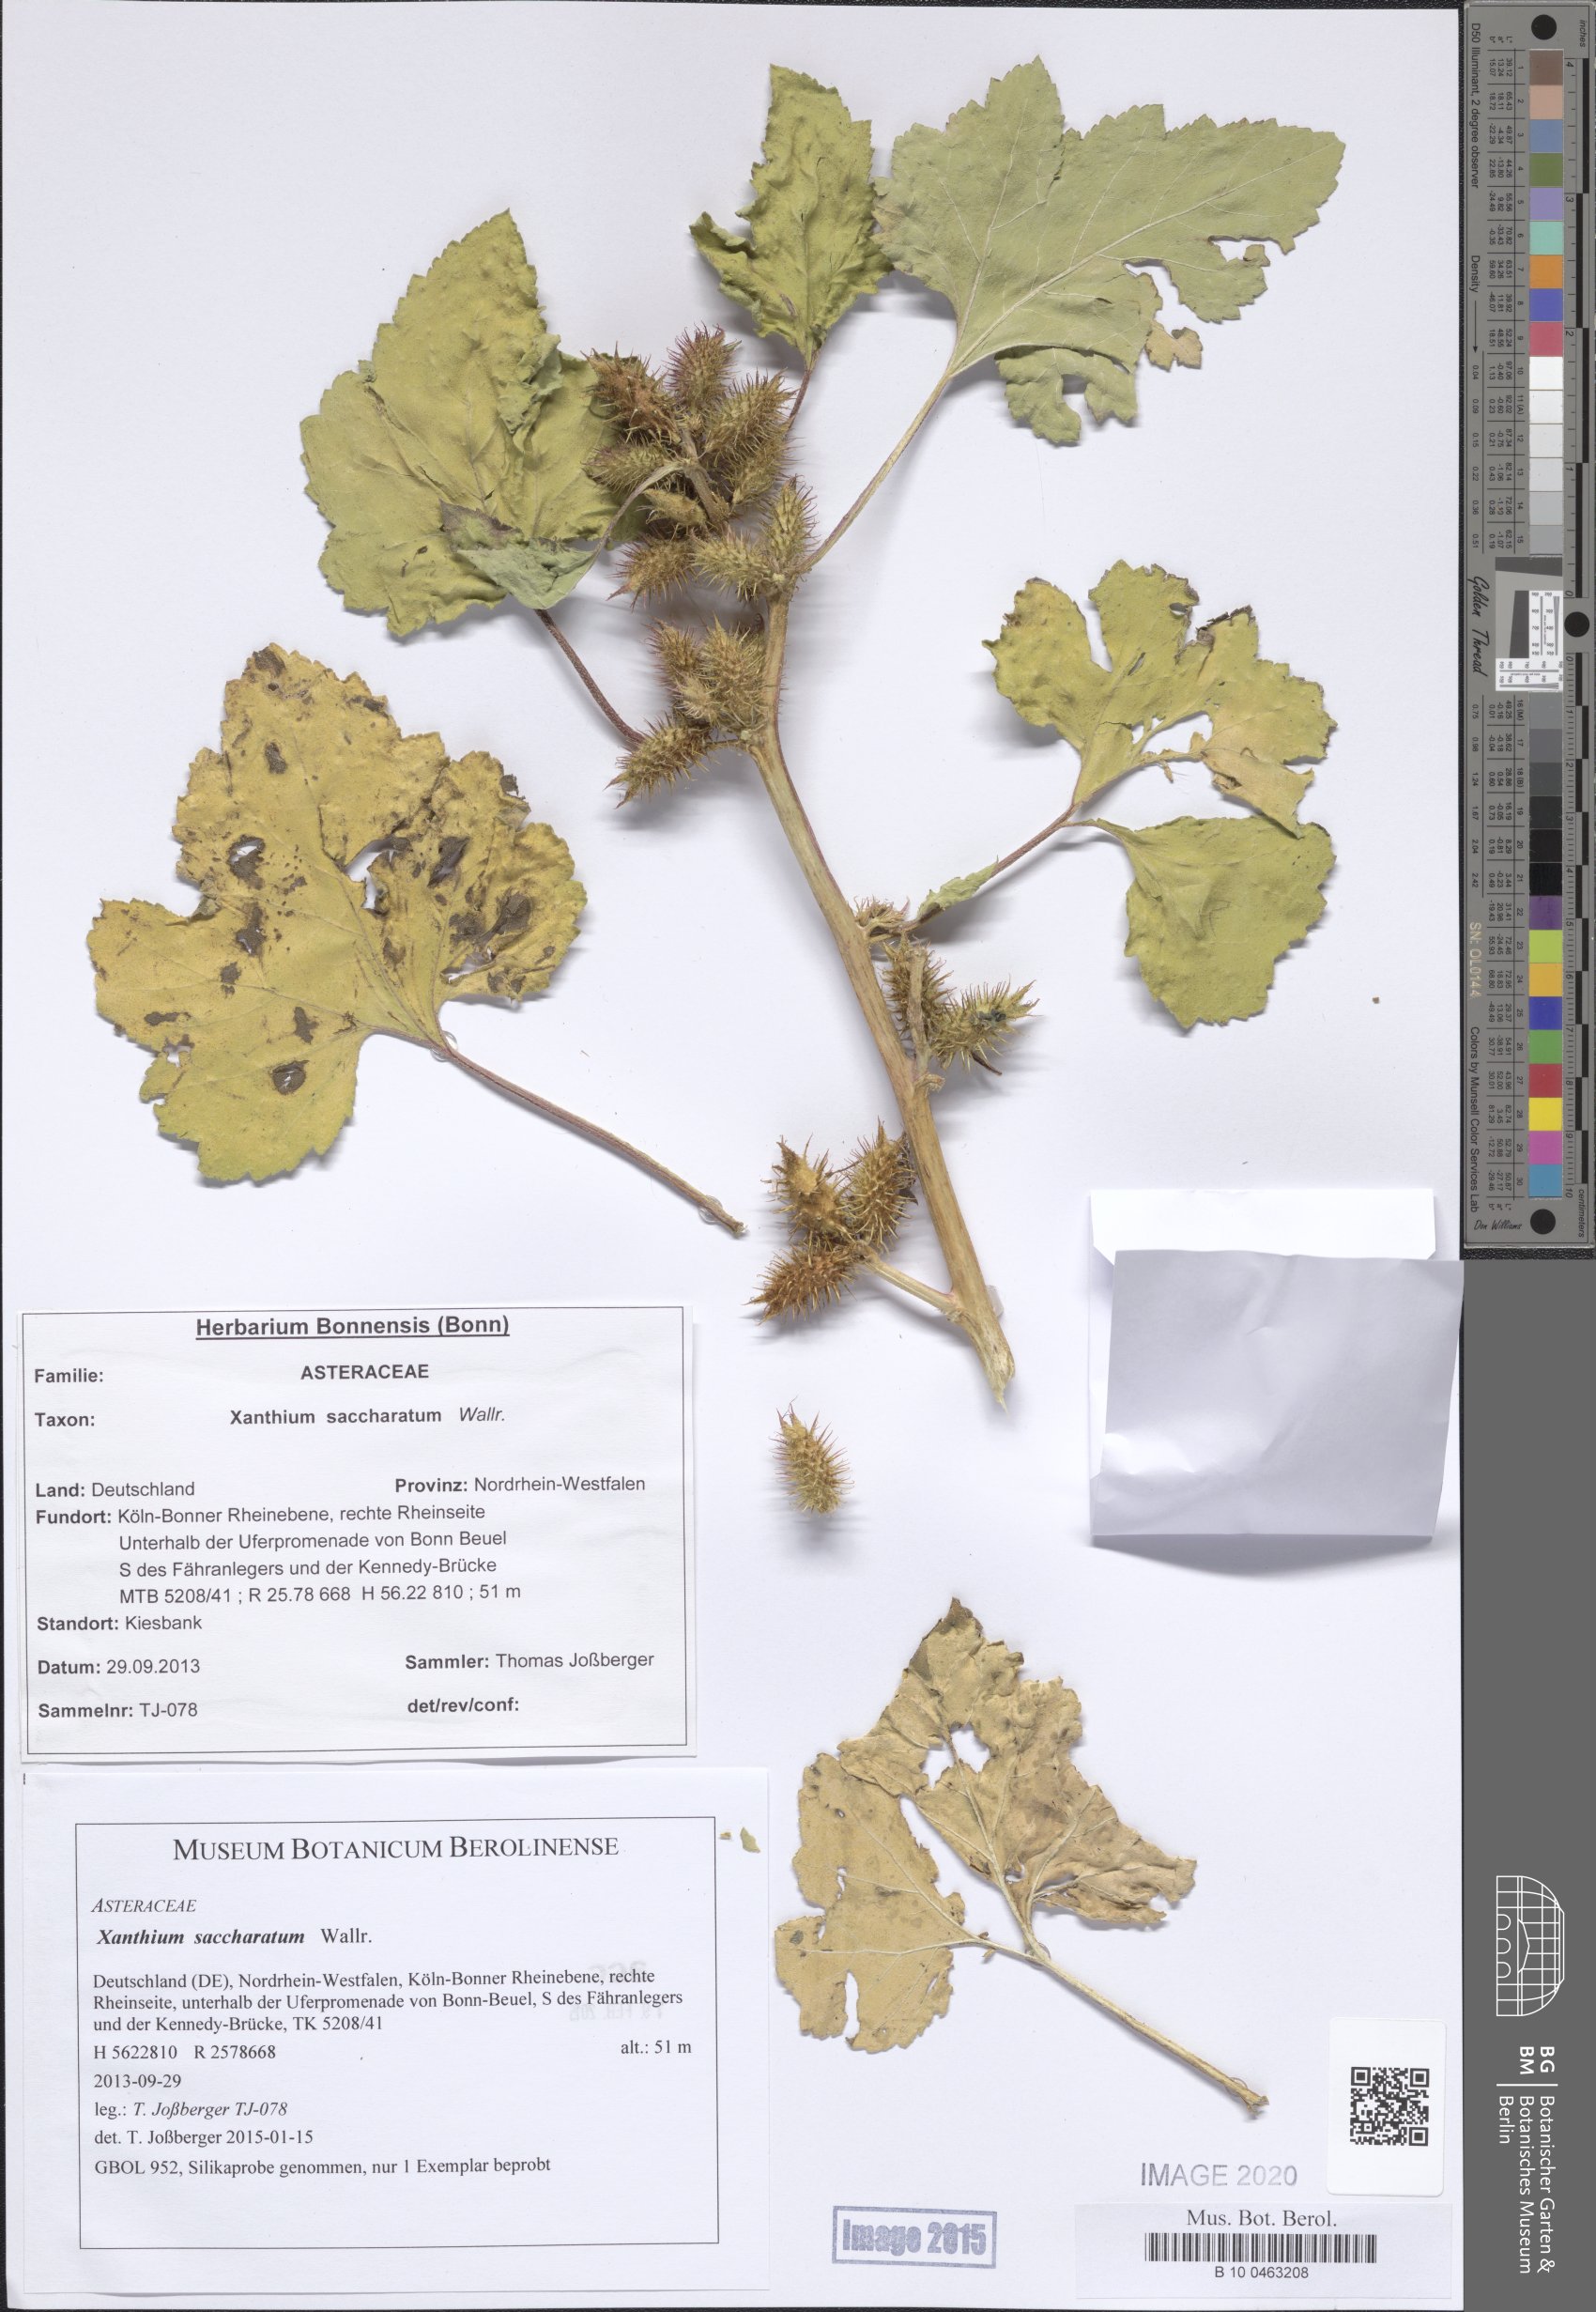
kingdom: Plantae
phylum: Tracheophyta
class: Magnoliopsida
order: Asterales
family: Asteraceae
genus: Xanthium
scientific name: Xanthium orientale
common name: Californian burr
